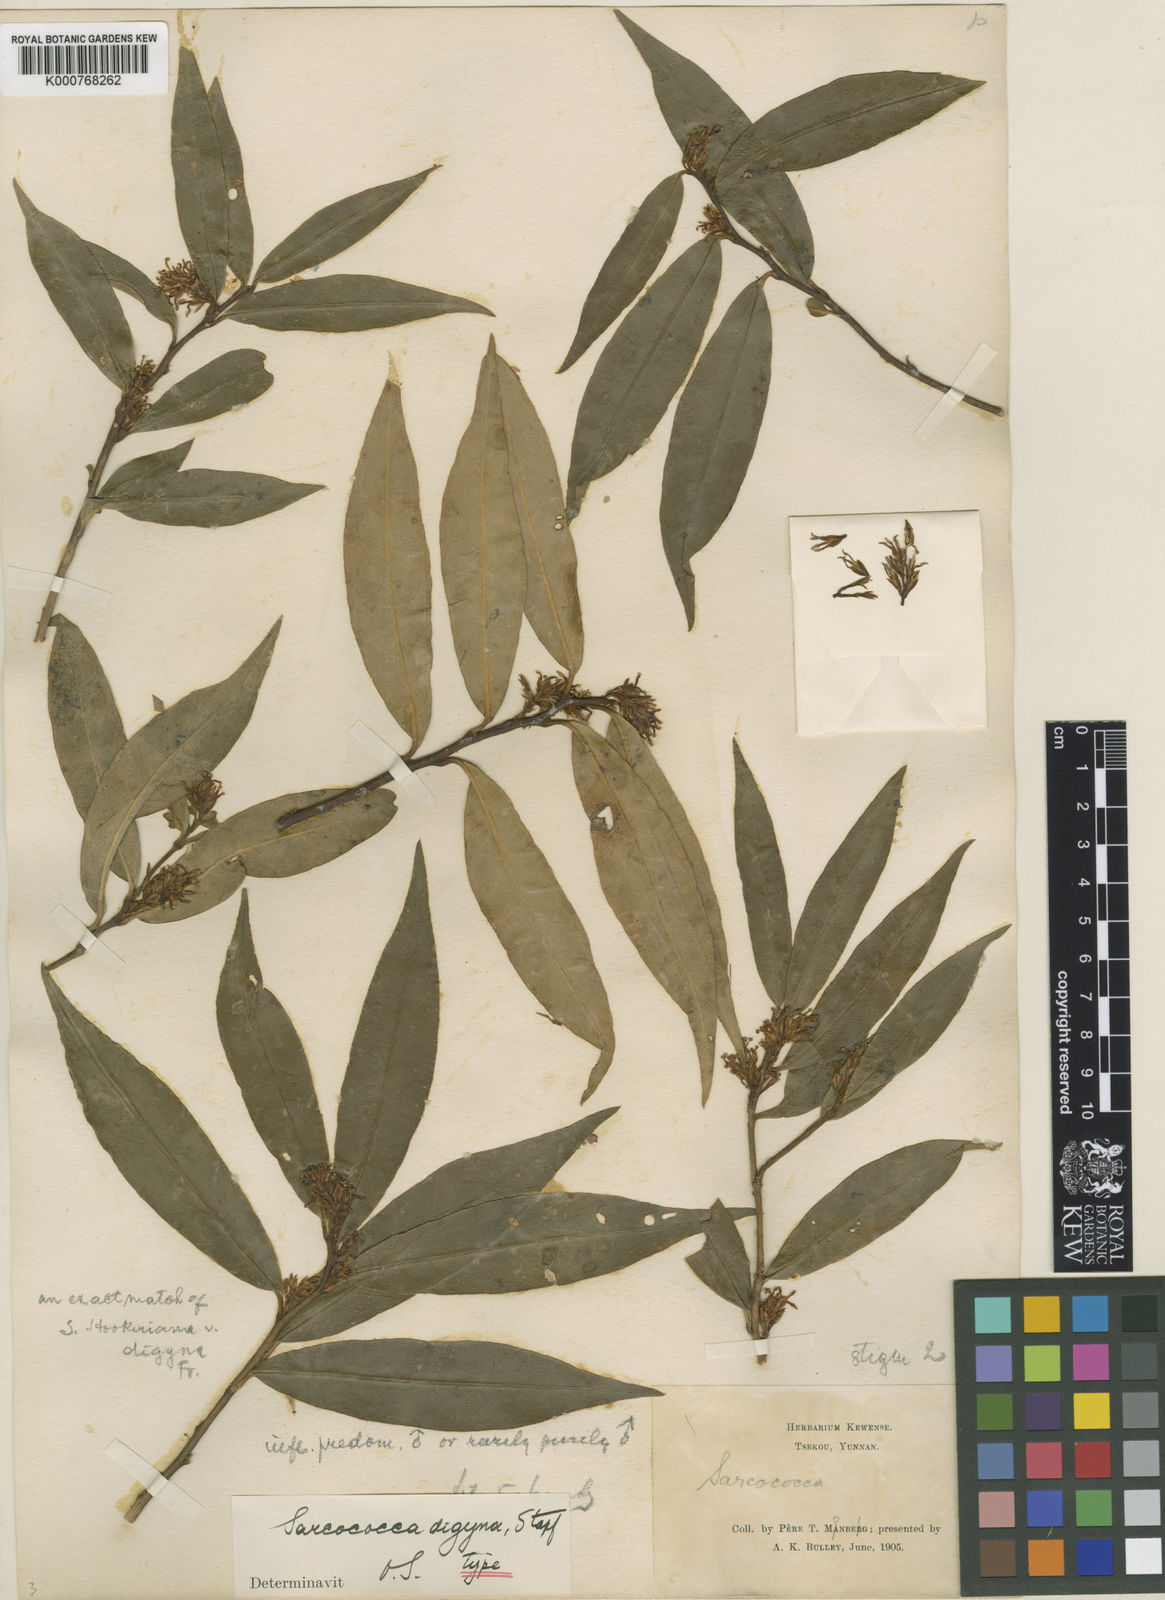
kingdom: Plantae
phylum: Tracheophyta
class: Magnoliopsida
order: Buxales
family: Buxaceae
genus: Sarcococca
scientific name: Sarcococca
